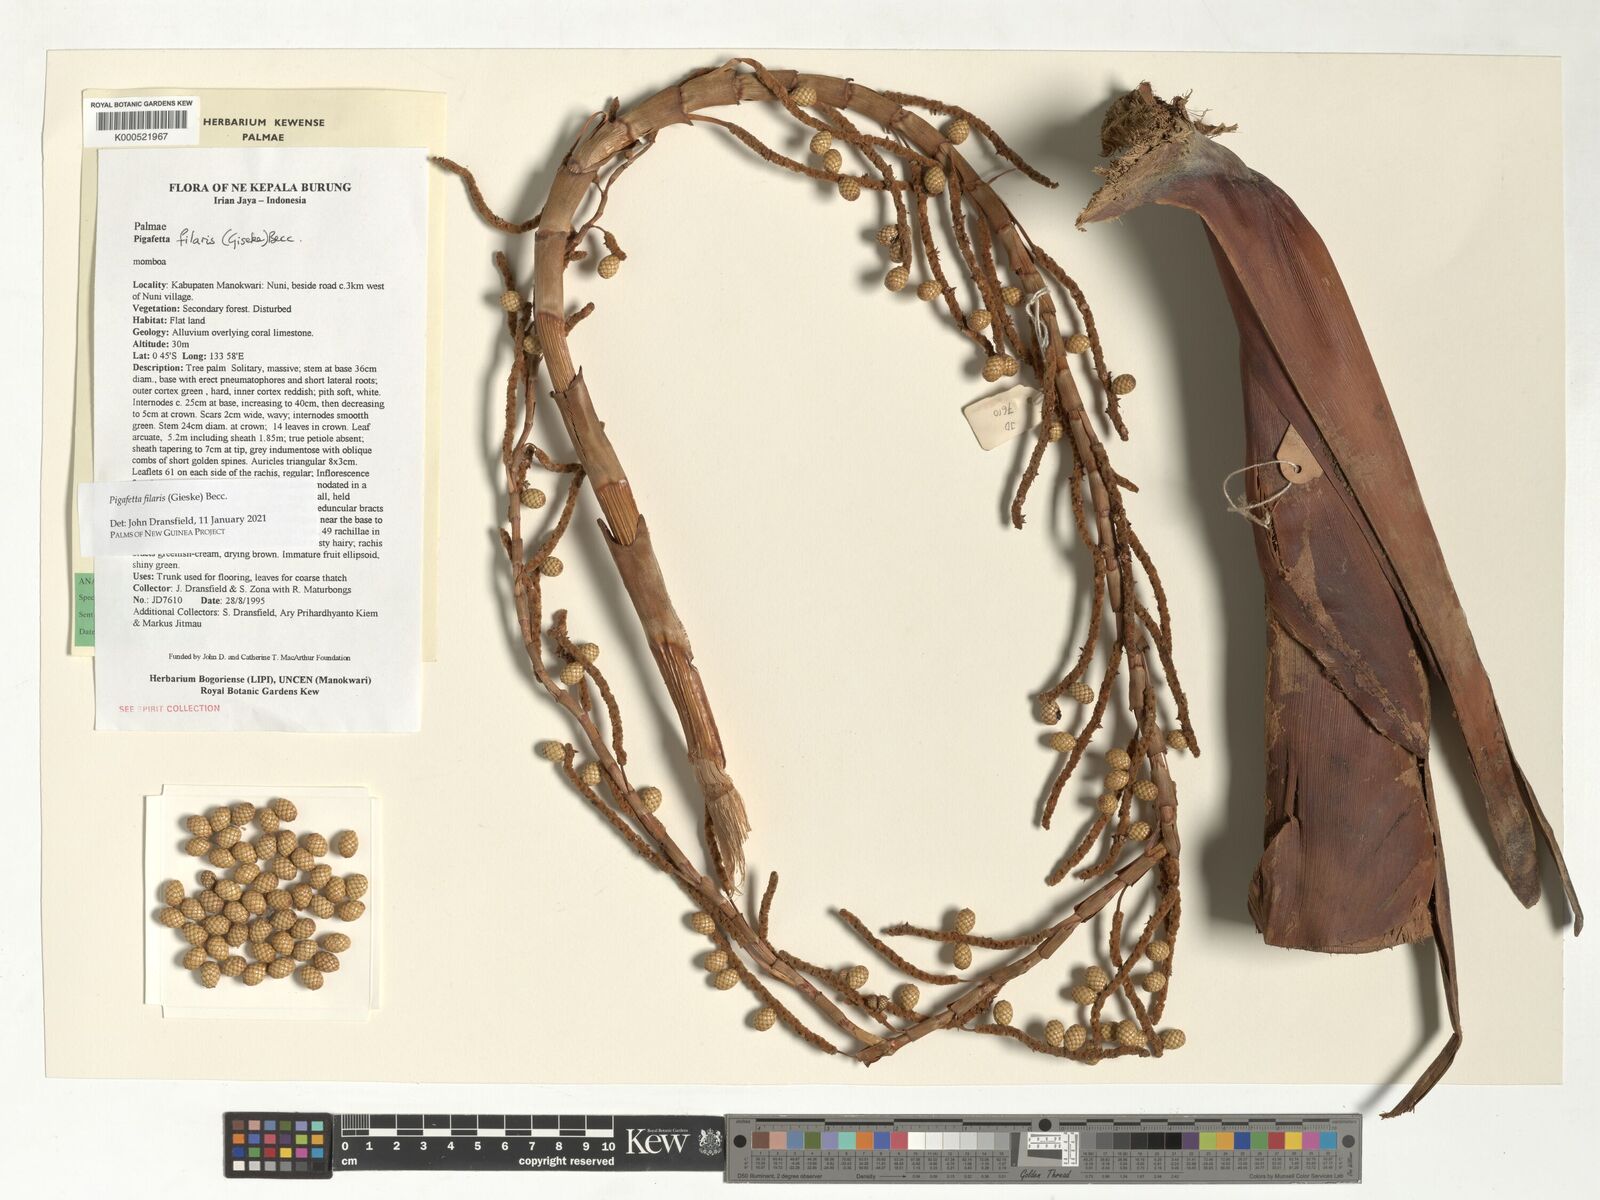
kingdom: Plantae
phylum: Tracheophyta
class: Liliopsida
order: Arecales
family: Arecaceae
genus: Pigafetta
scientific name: Pigafetta filaris
